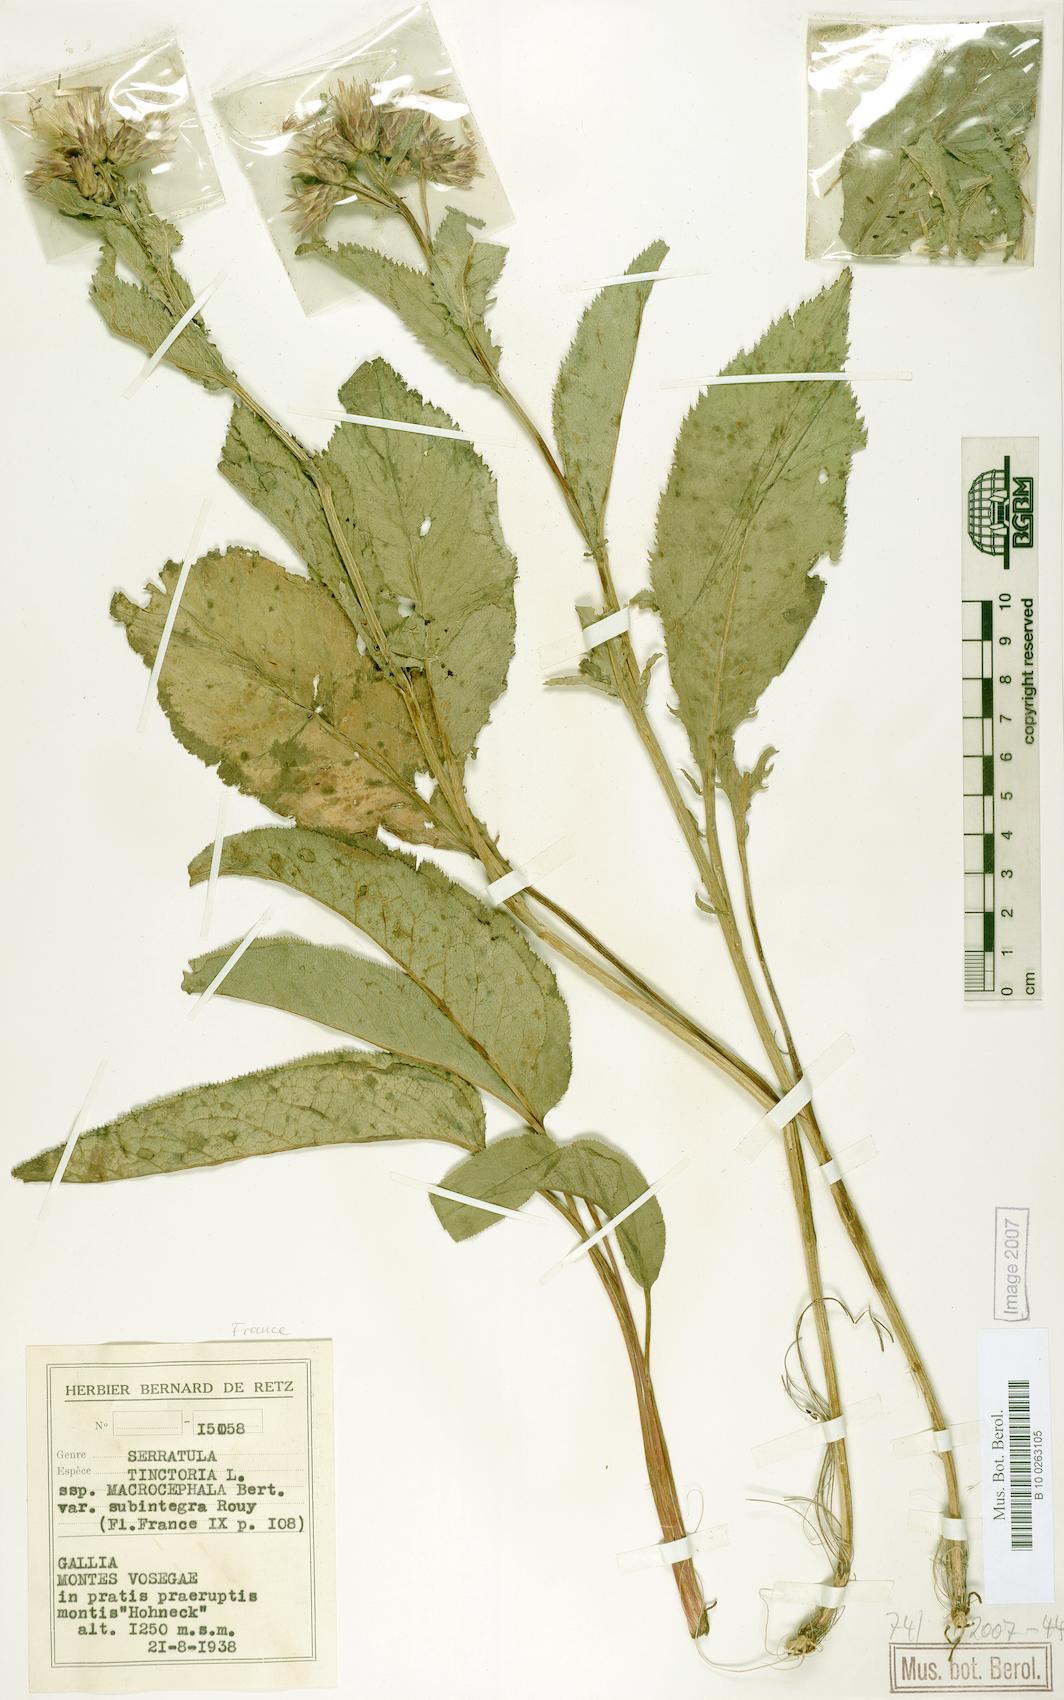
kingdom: Plantae
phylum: Tracheophyta
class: Magnoliopsida
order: Asterales
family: Asteraceae
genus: Serratula
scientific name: Serratula tinctoria
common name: Saw-wort
